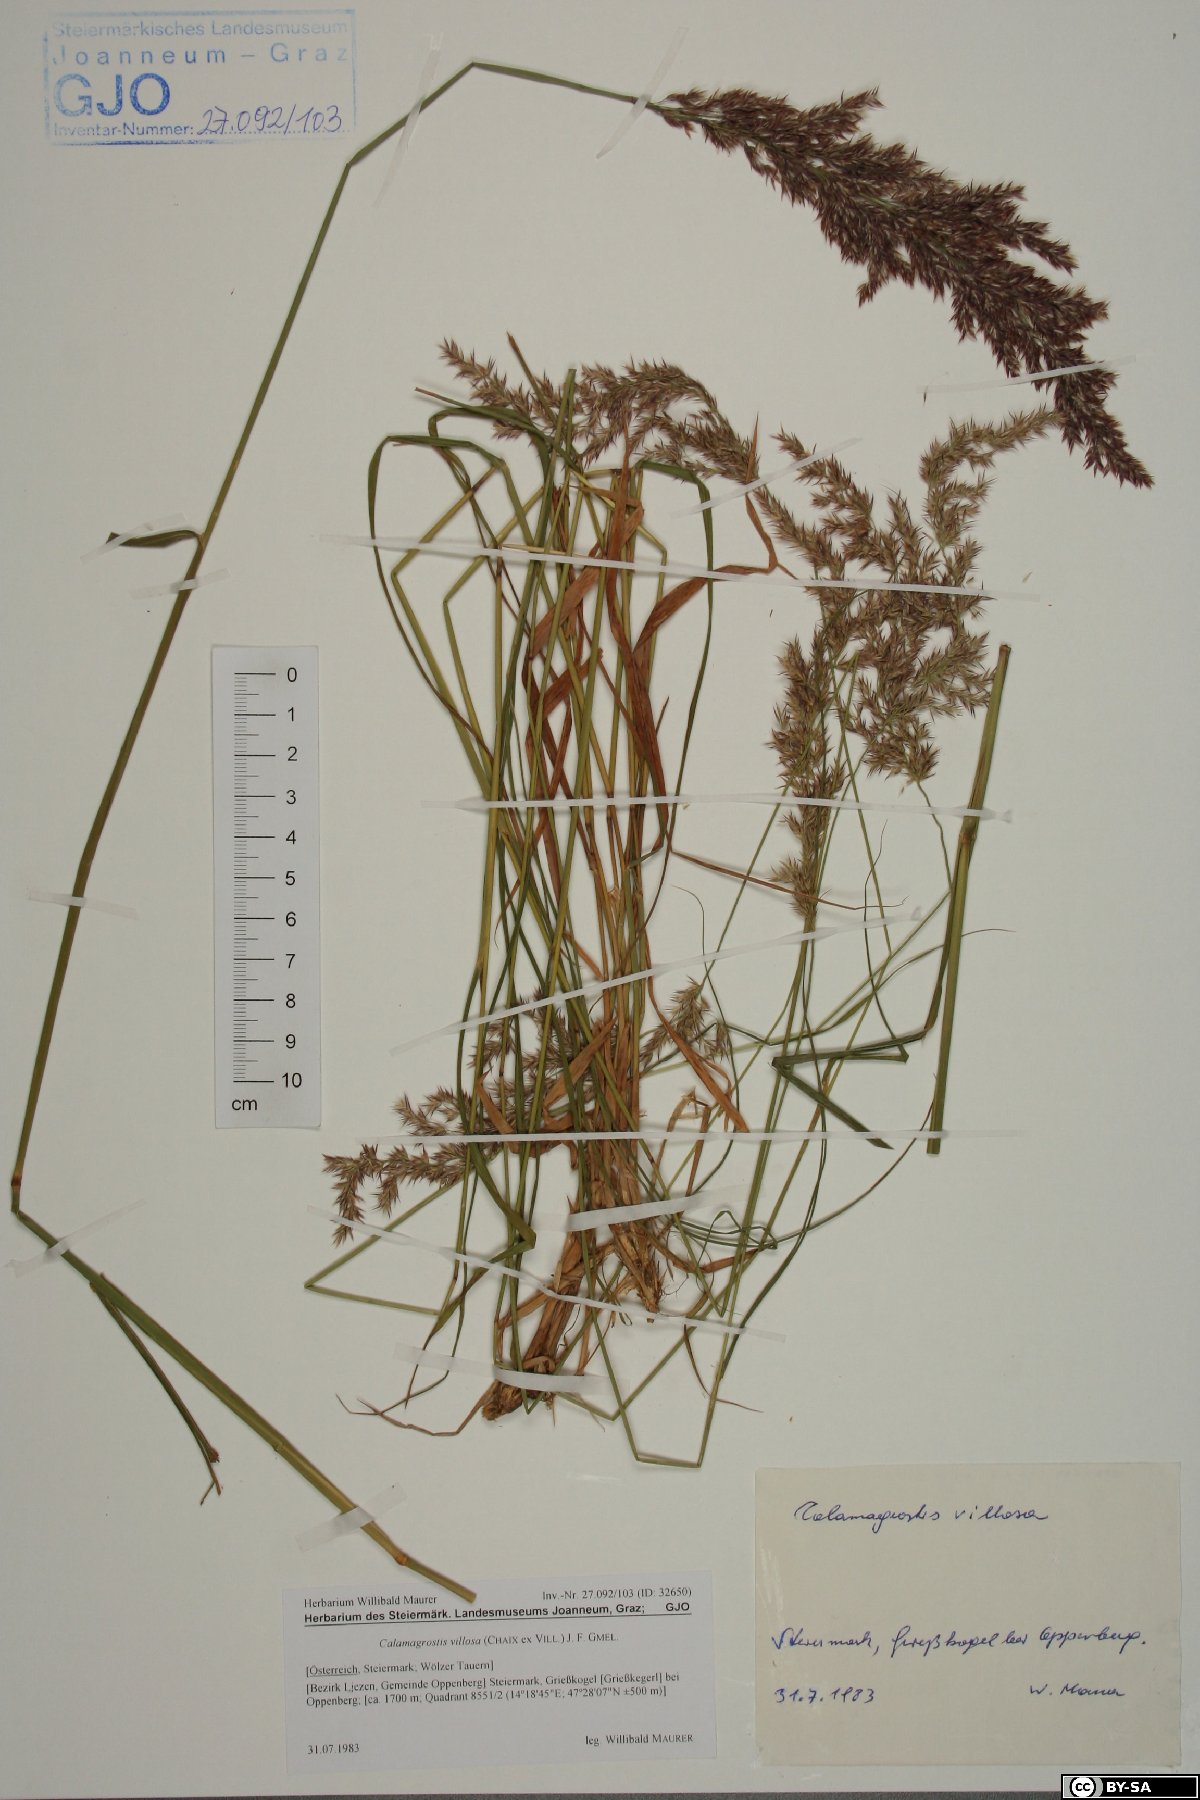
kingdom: Plantae
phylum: Tracheophyta
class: Liliopsida
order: Poales
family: Poaceae
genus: Calamagrostis
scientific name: Calamagrostis villosa
